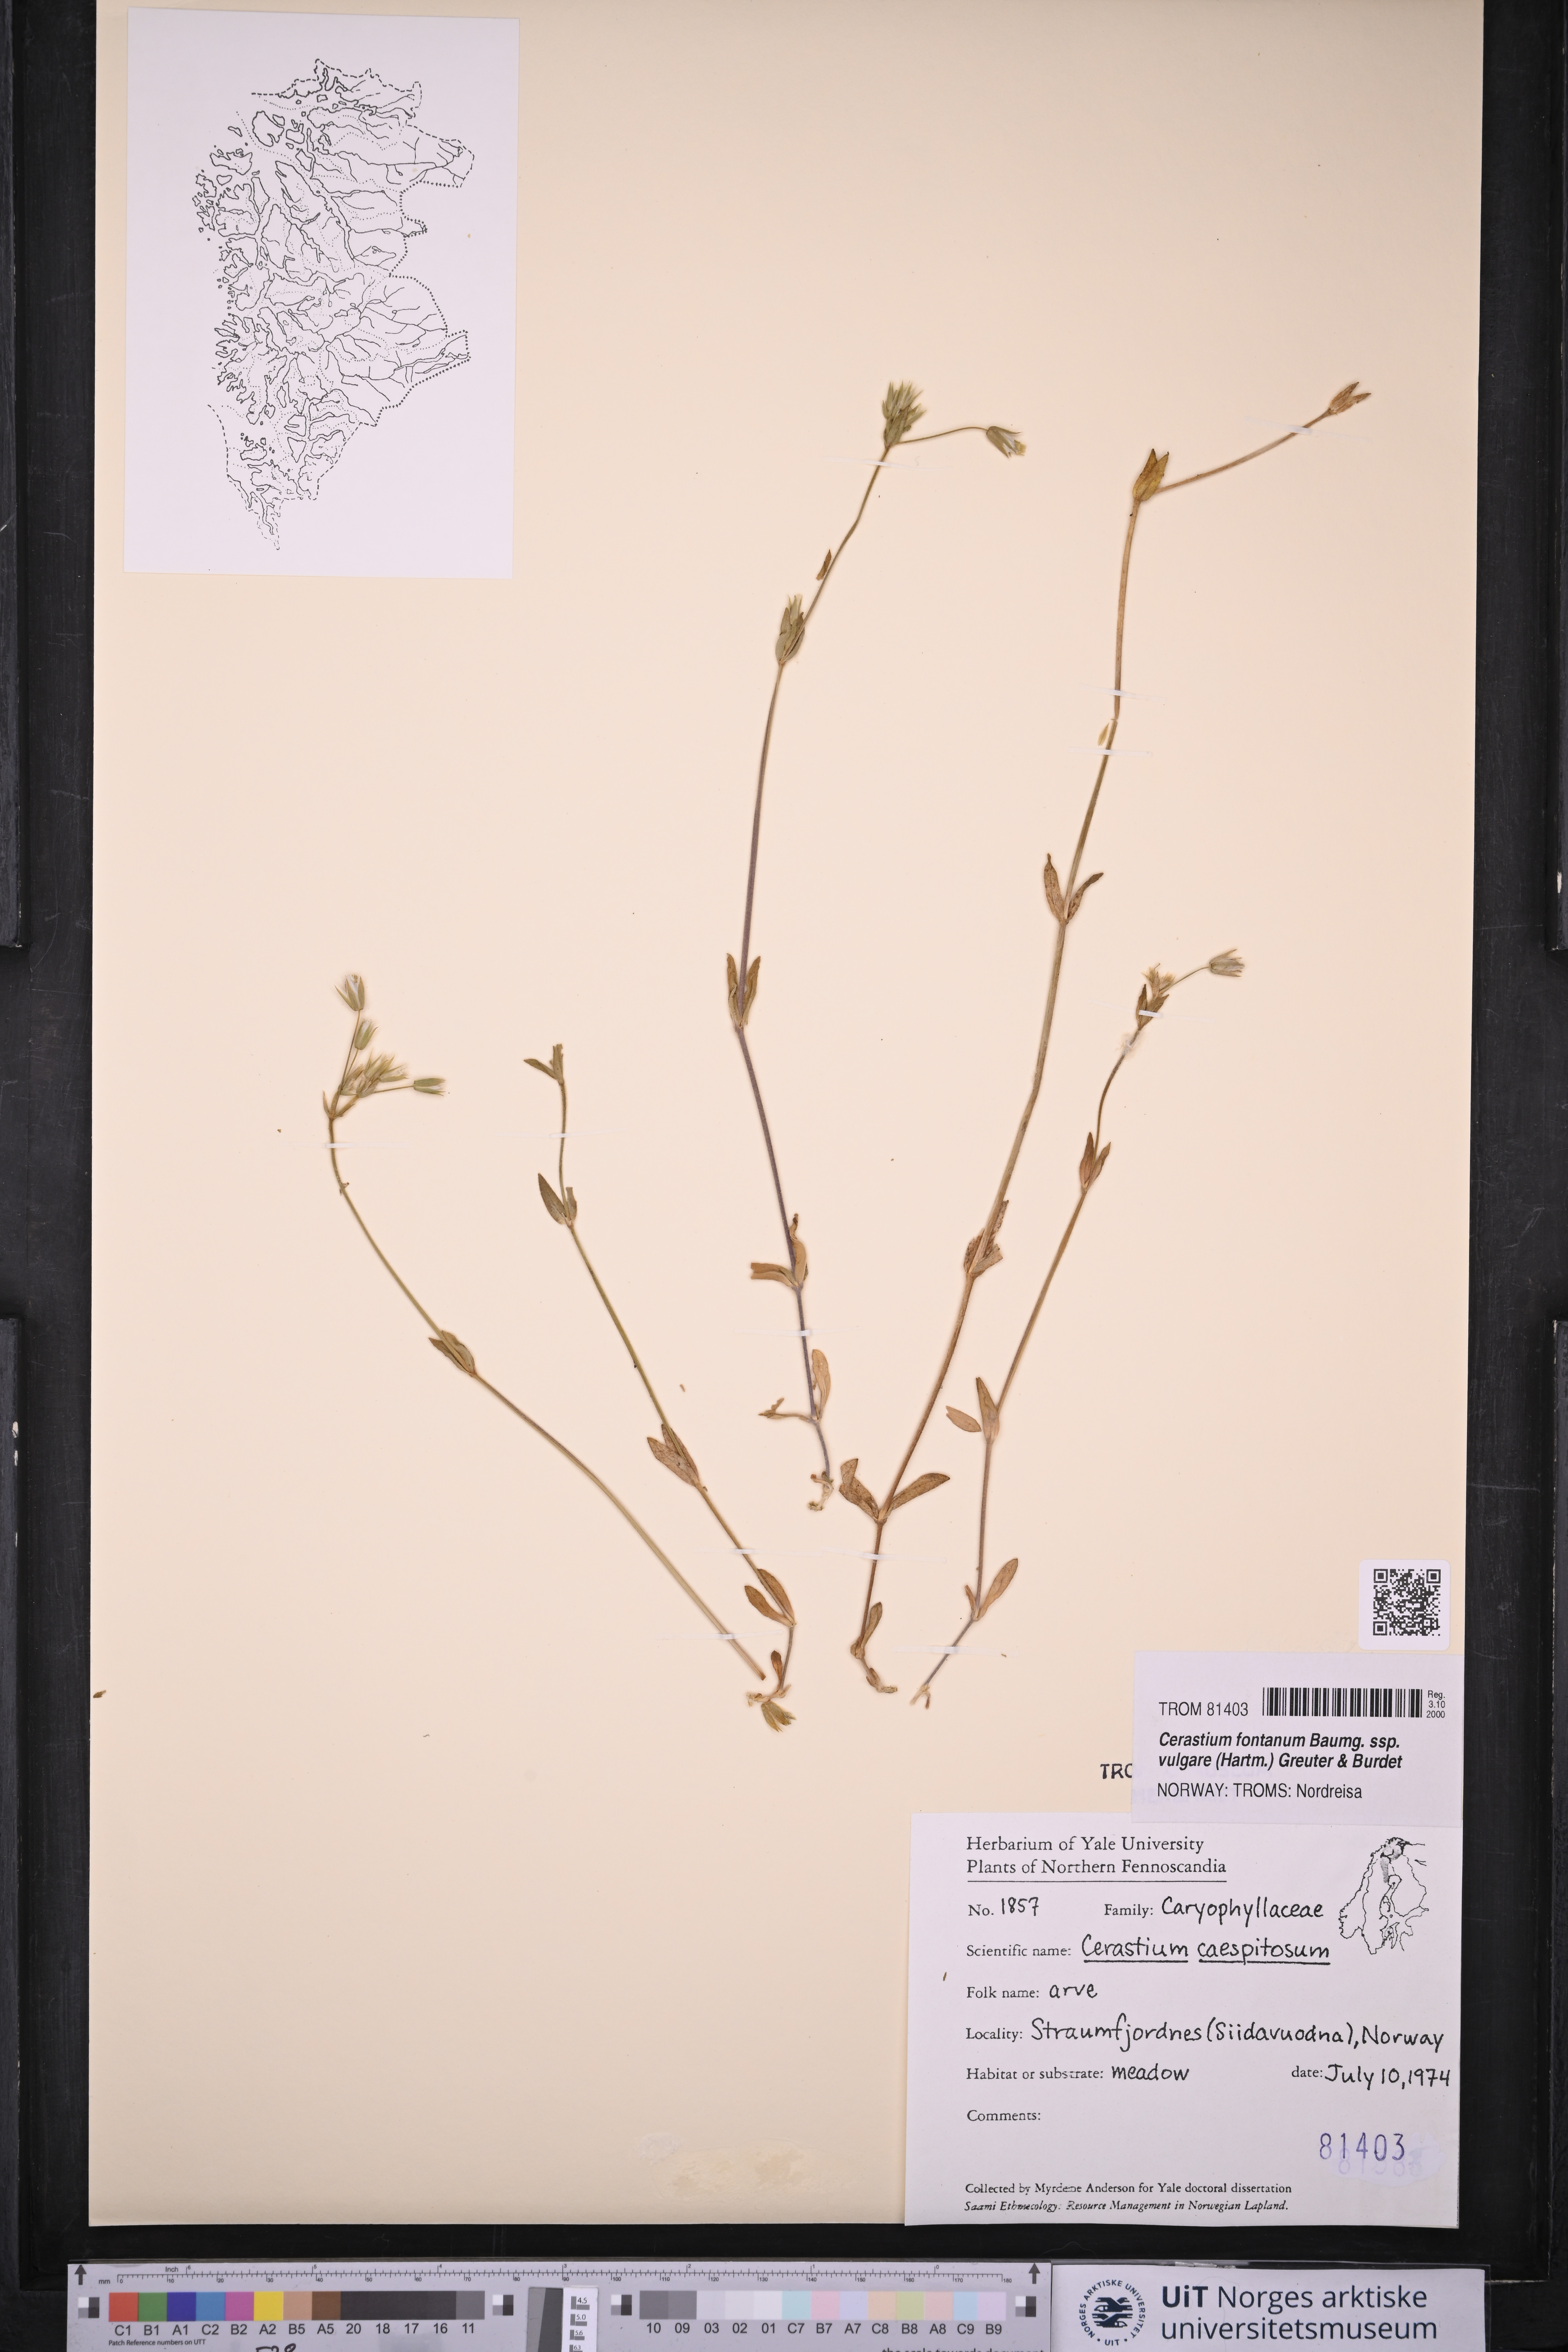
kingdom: Plantae
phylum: Tracheophyta
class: Magnoliopsida
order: Caryophyllales
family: Caryophyllaceae
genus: Cerastium
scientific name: Cerastium holosteoides
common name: Big chickweed
